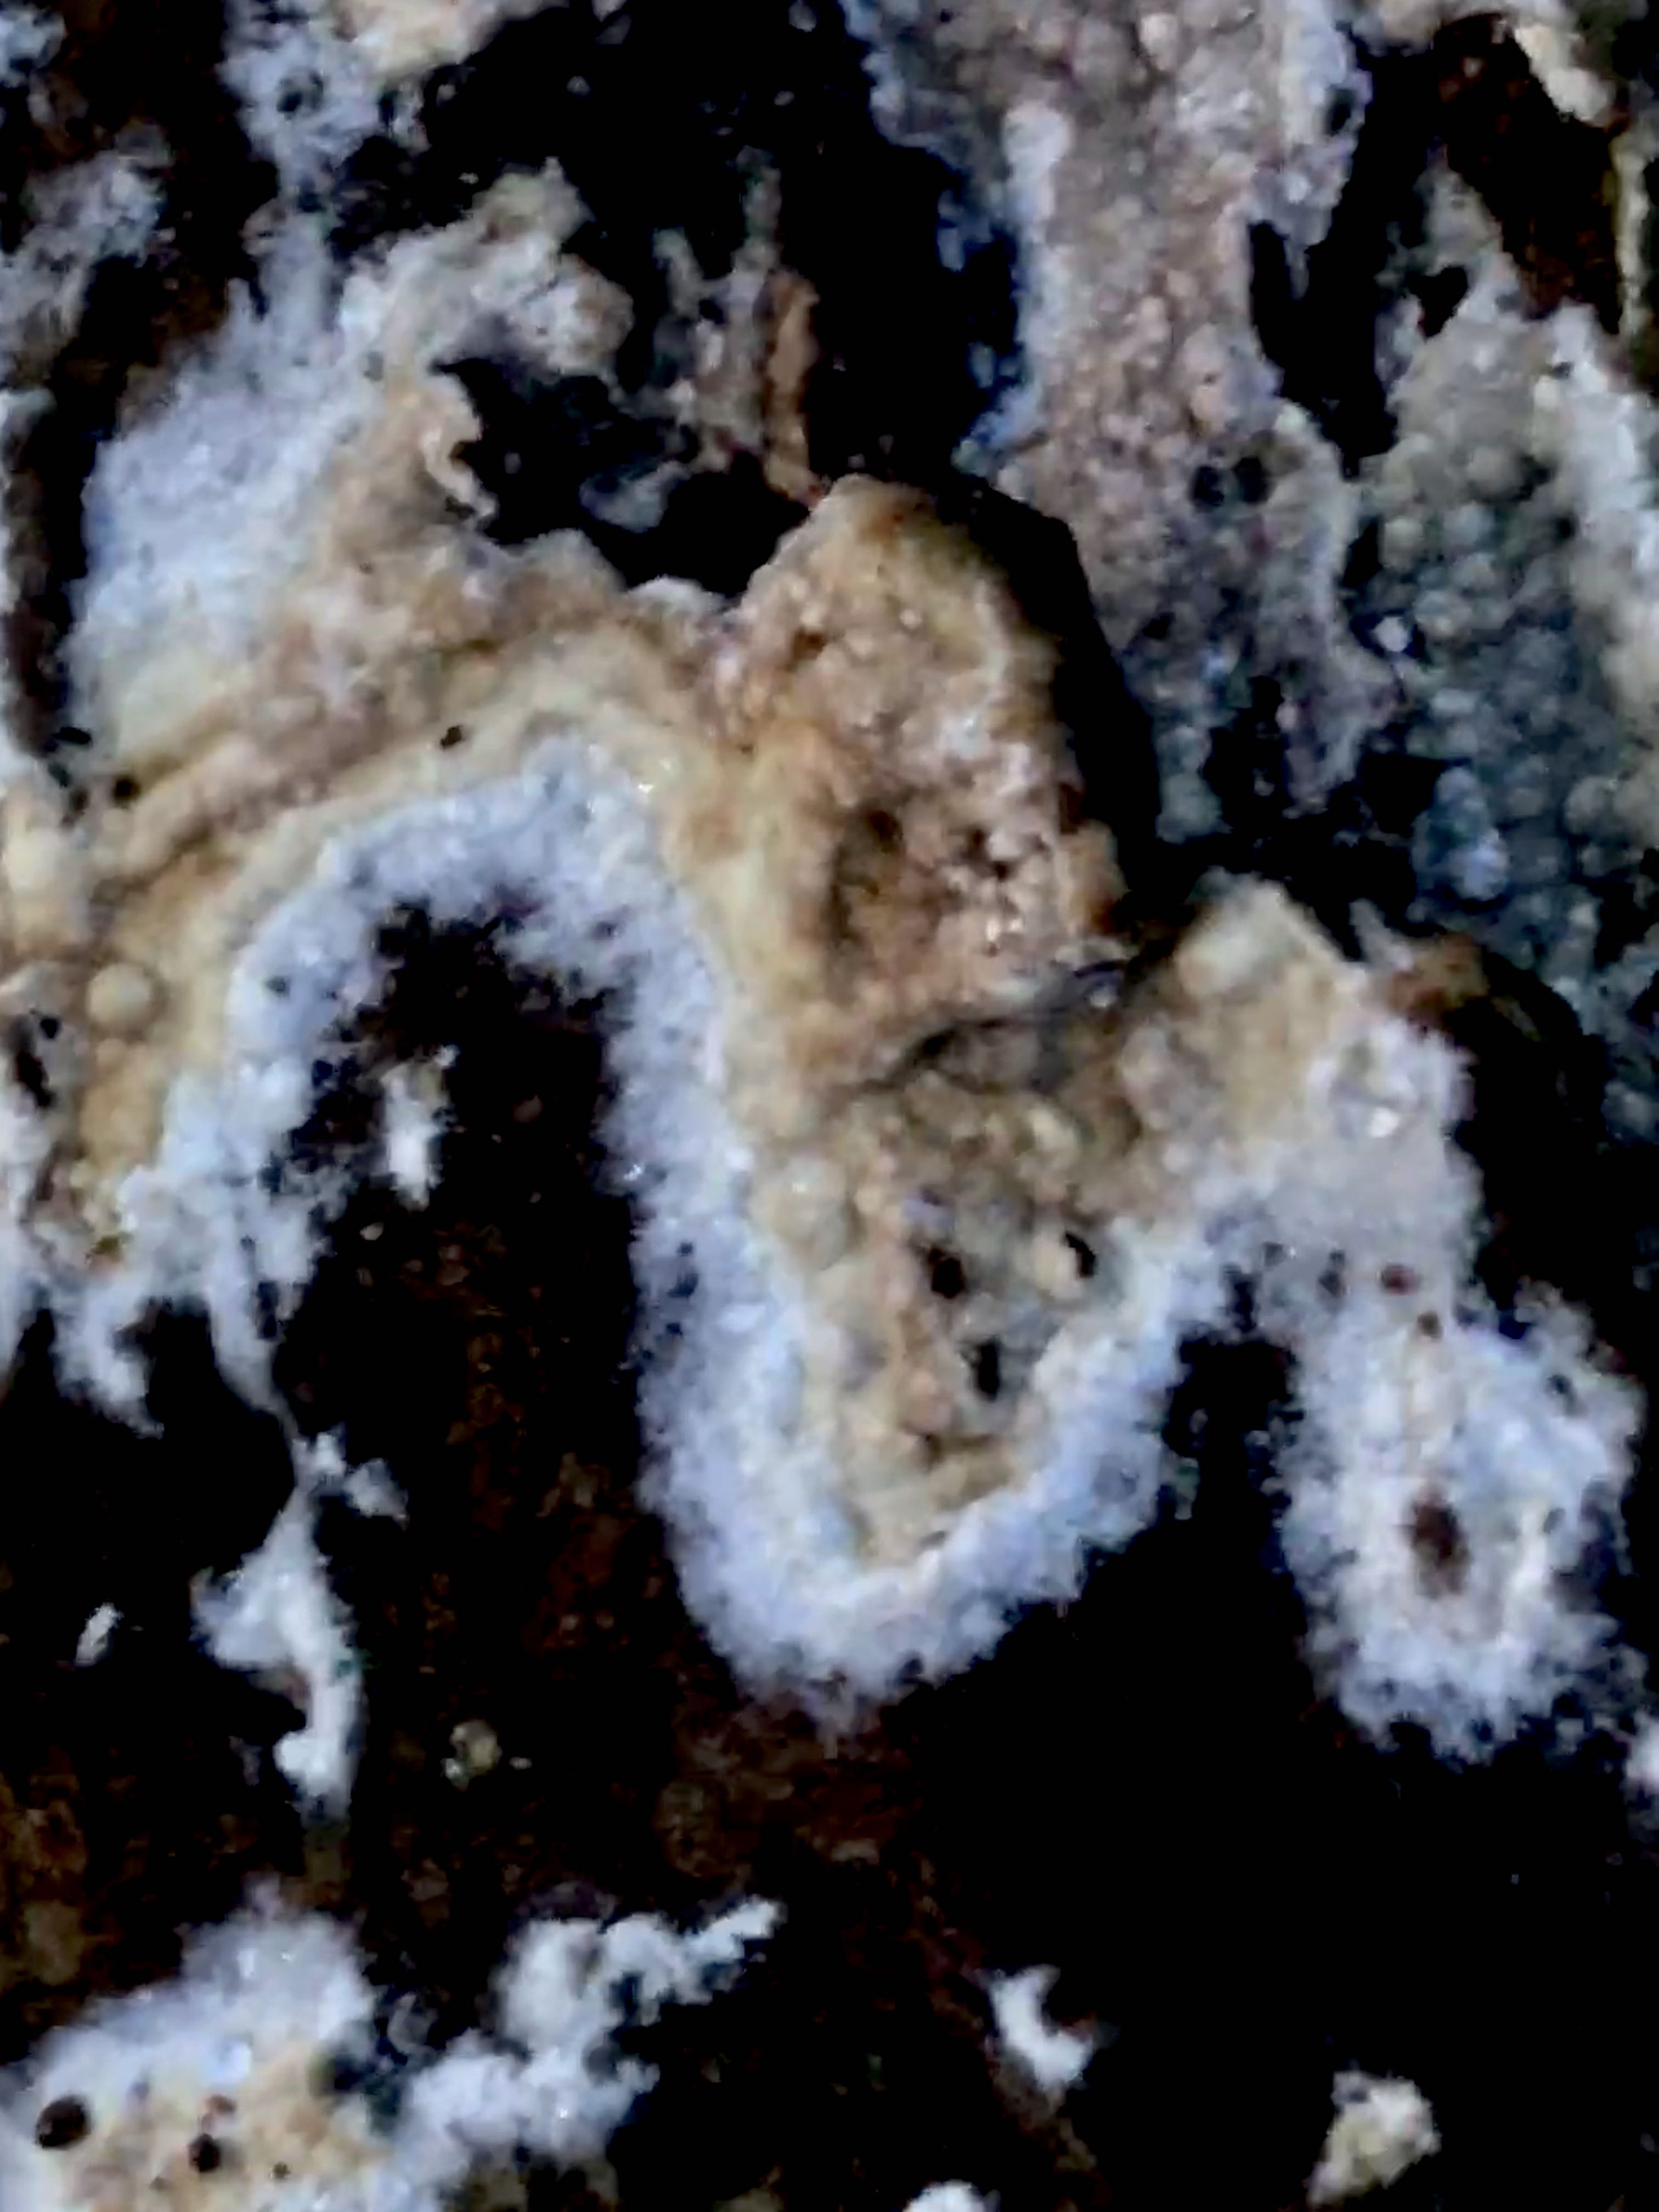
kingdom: Fungi
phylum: Basidiomycota
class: Agaricomycetes
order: Boletales
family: Coniophoraceae
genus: Coniophora
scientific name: Coniophora puteana
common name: gul tømmersvamp
